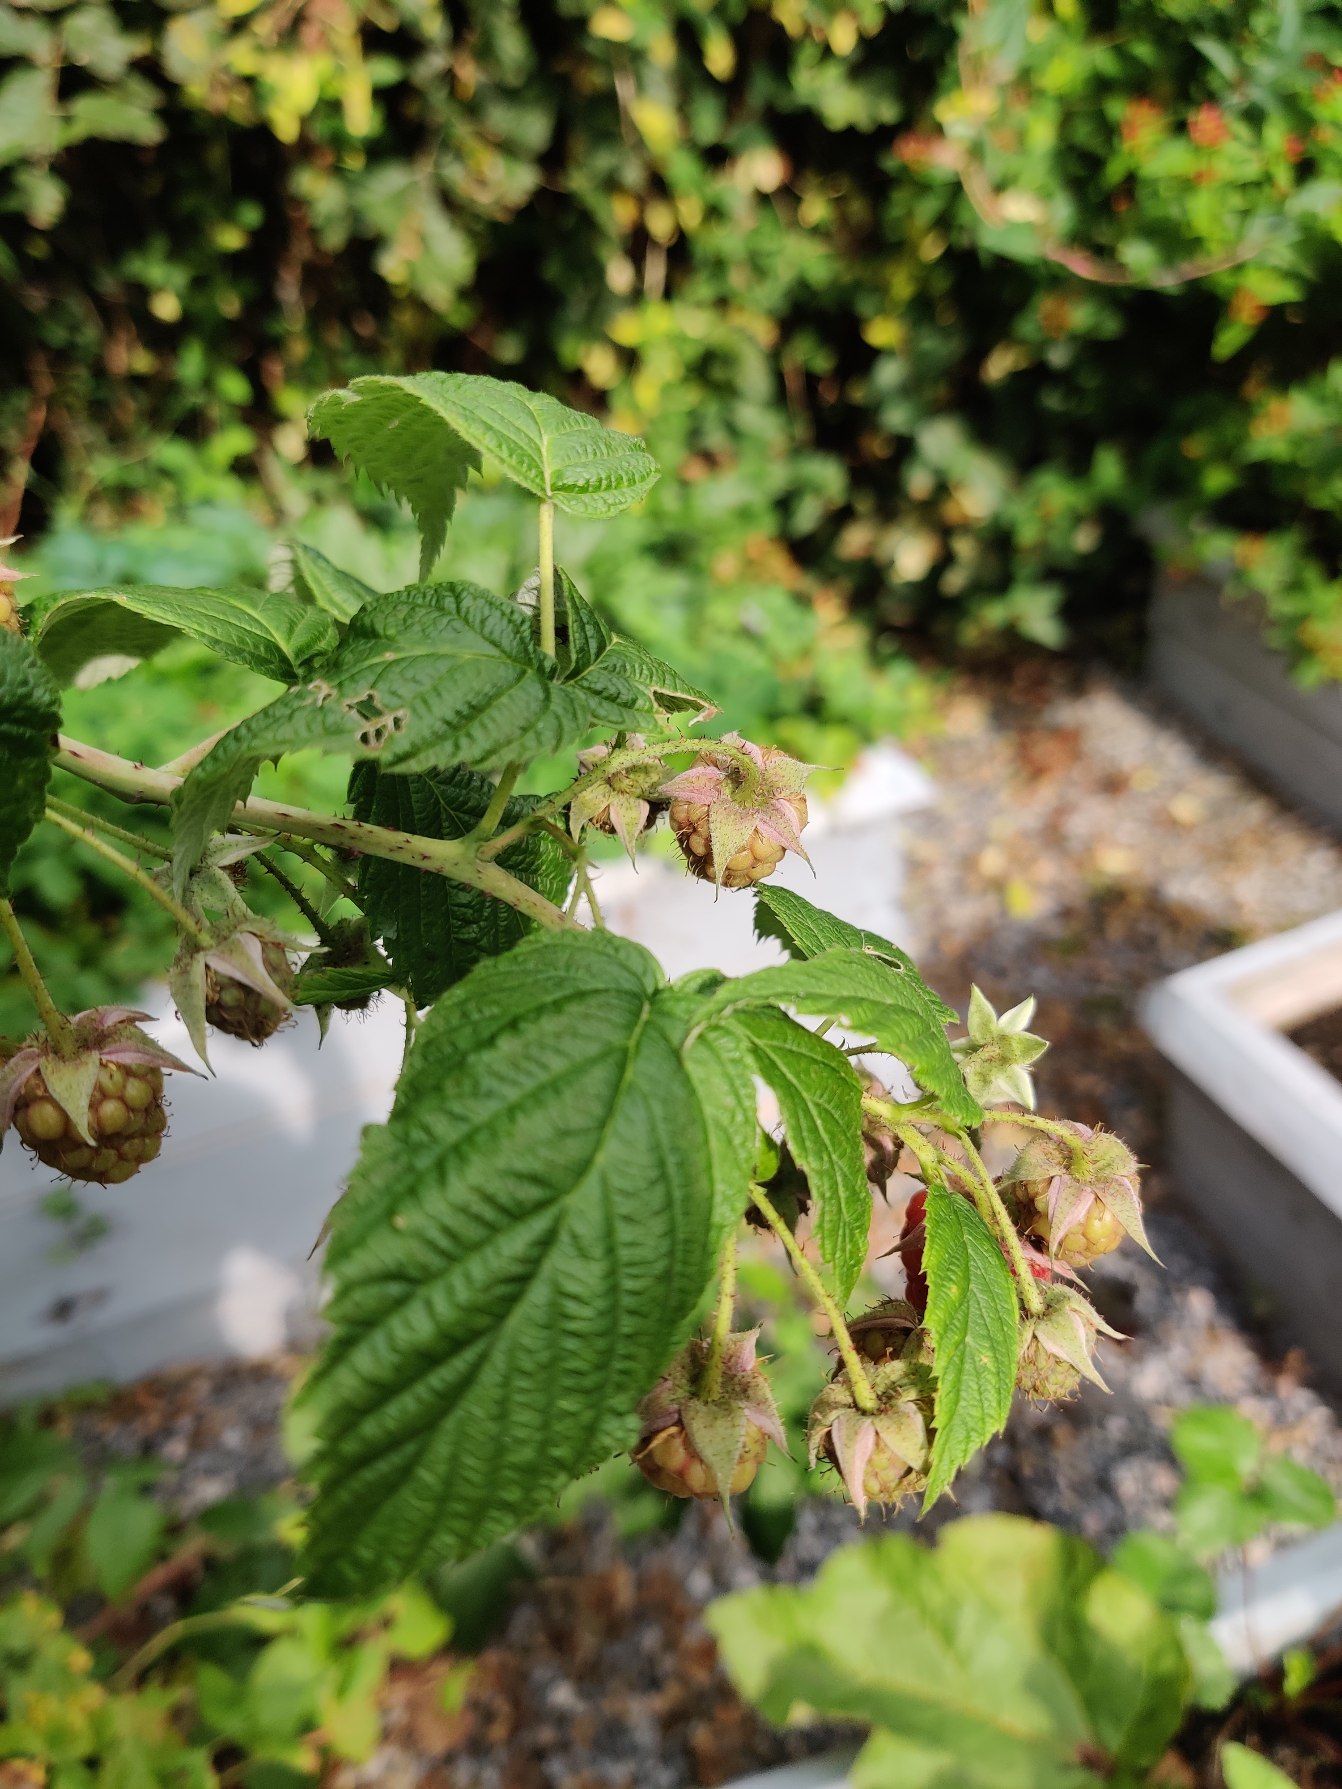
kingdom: Plantae
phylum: Tracheophyta
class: Magnoliopsida
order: Rosales
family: Rosaceae
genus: Rubus
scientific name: Rubus idaeus
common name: Hindbær
